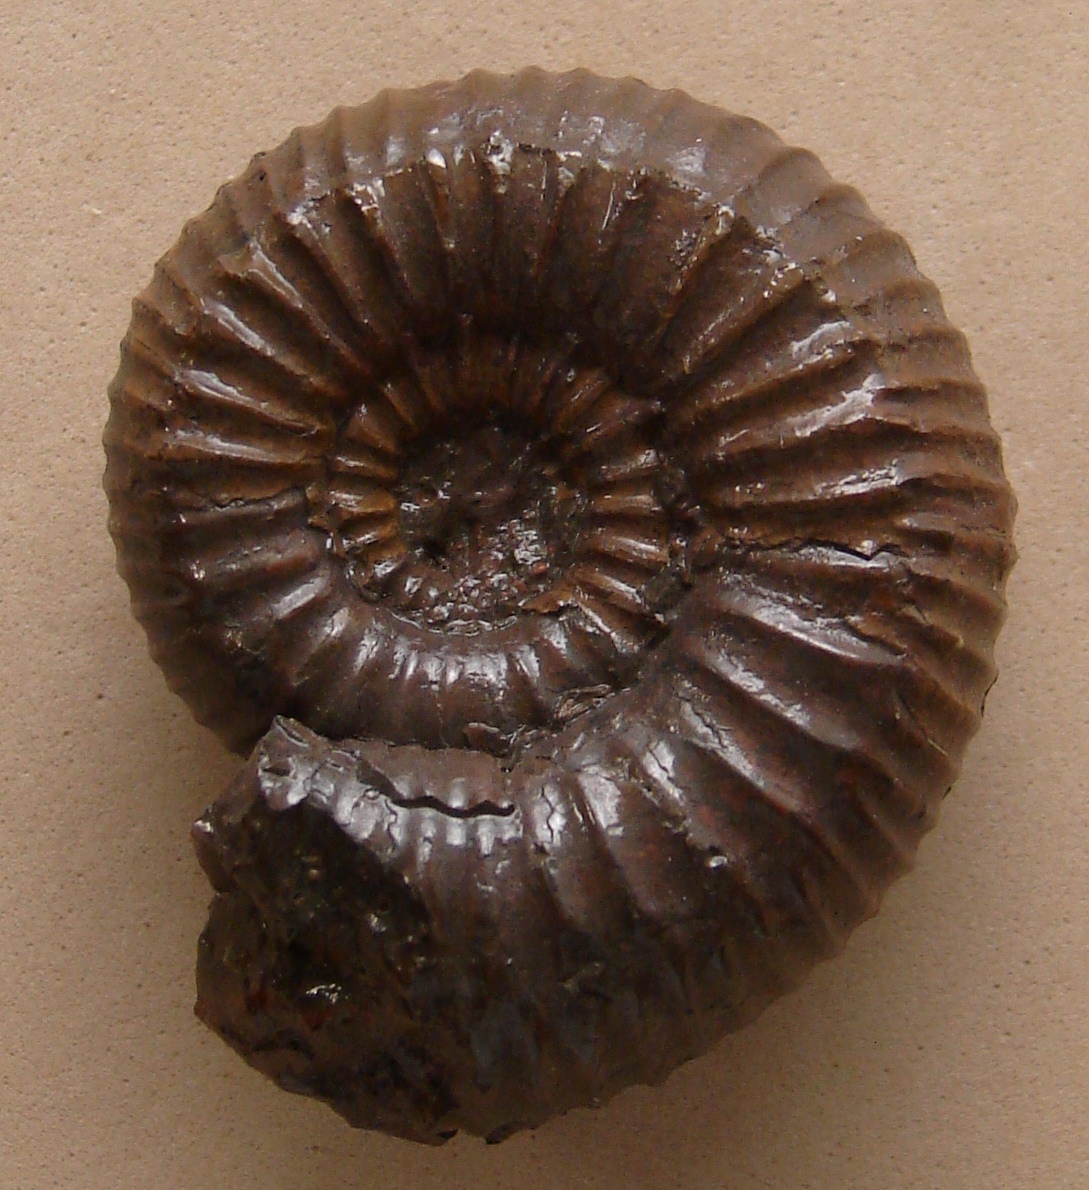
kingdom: Animalia
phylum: Mollusca
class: Cephalopoda
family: Dactylioceratidae
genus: Catacoeloceras
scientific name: Catacoeloceras crassum
